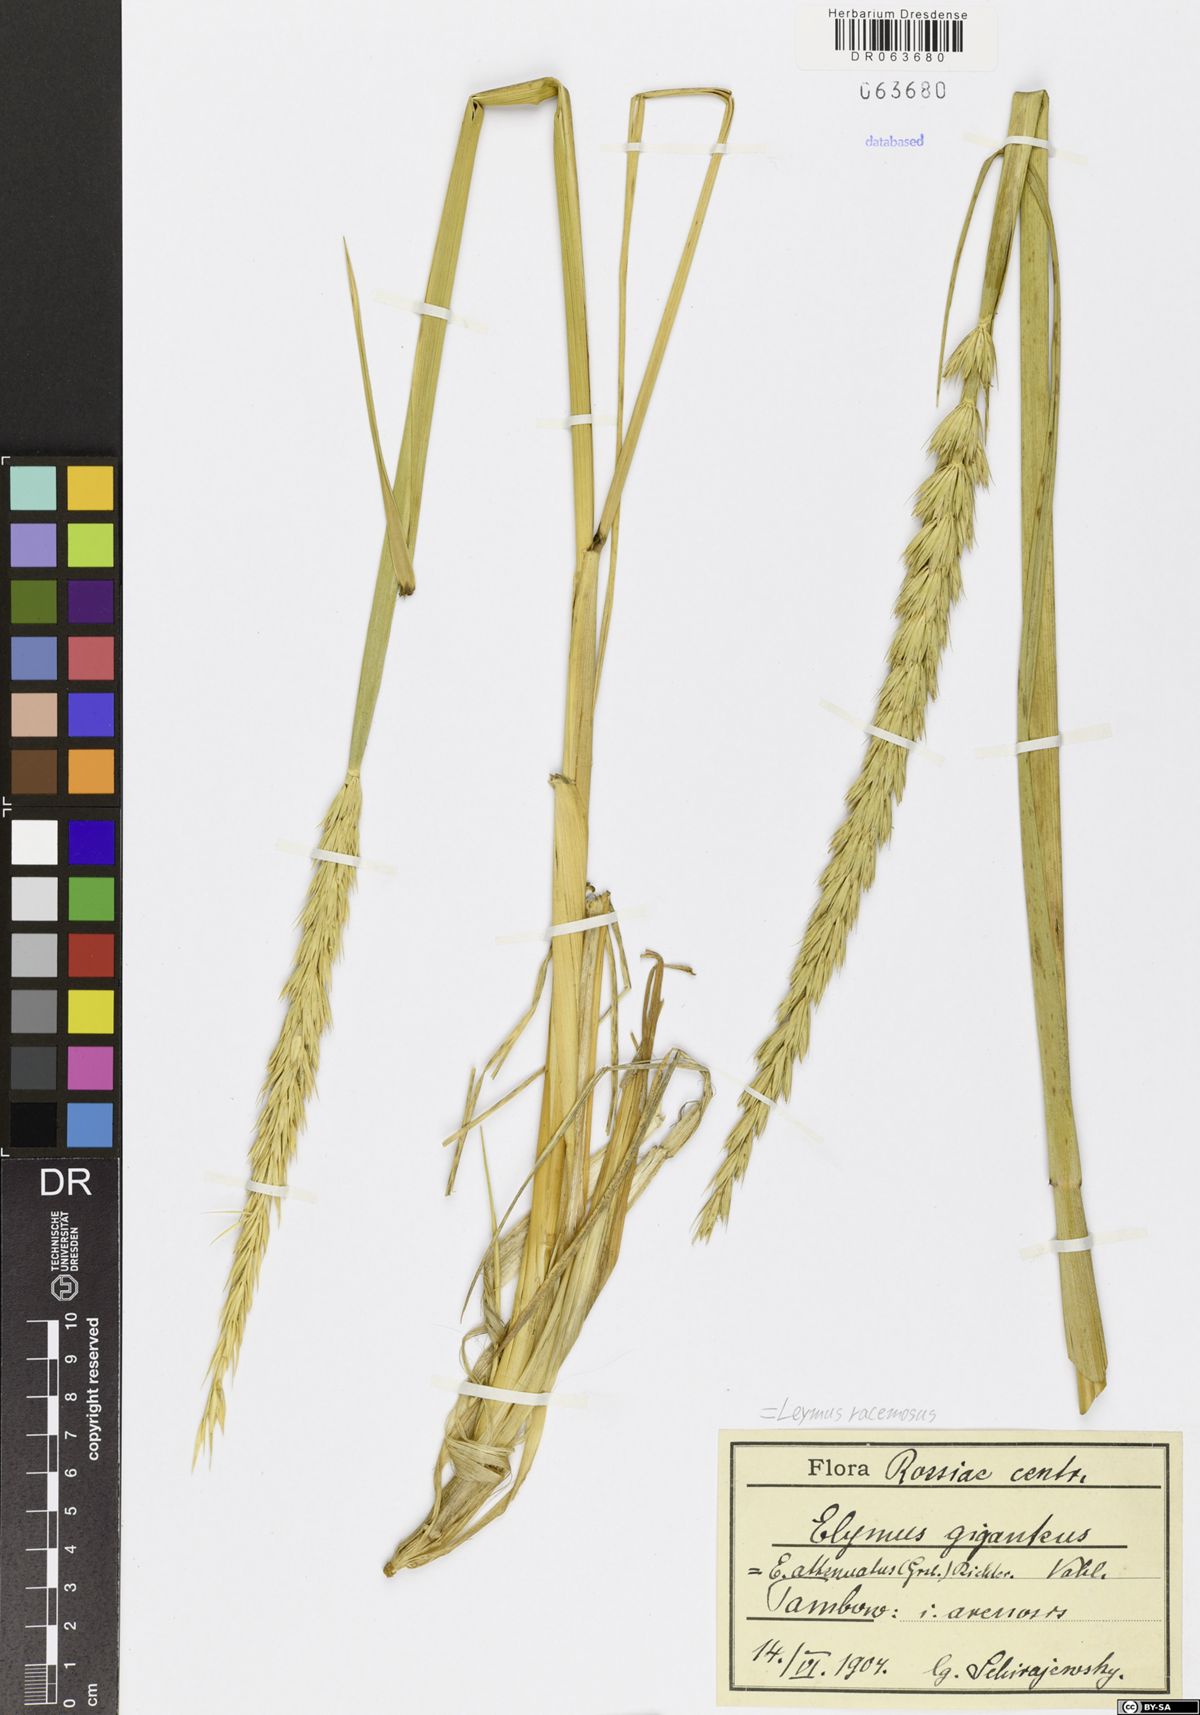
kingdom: Plantae
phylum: Tracheophyta
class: Liliopsida
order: Poales
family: Poaceae
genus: Leymus
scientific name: Leymus racemosus
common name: Mammoth wildrye
